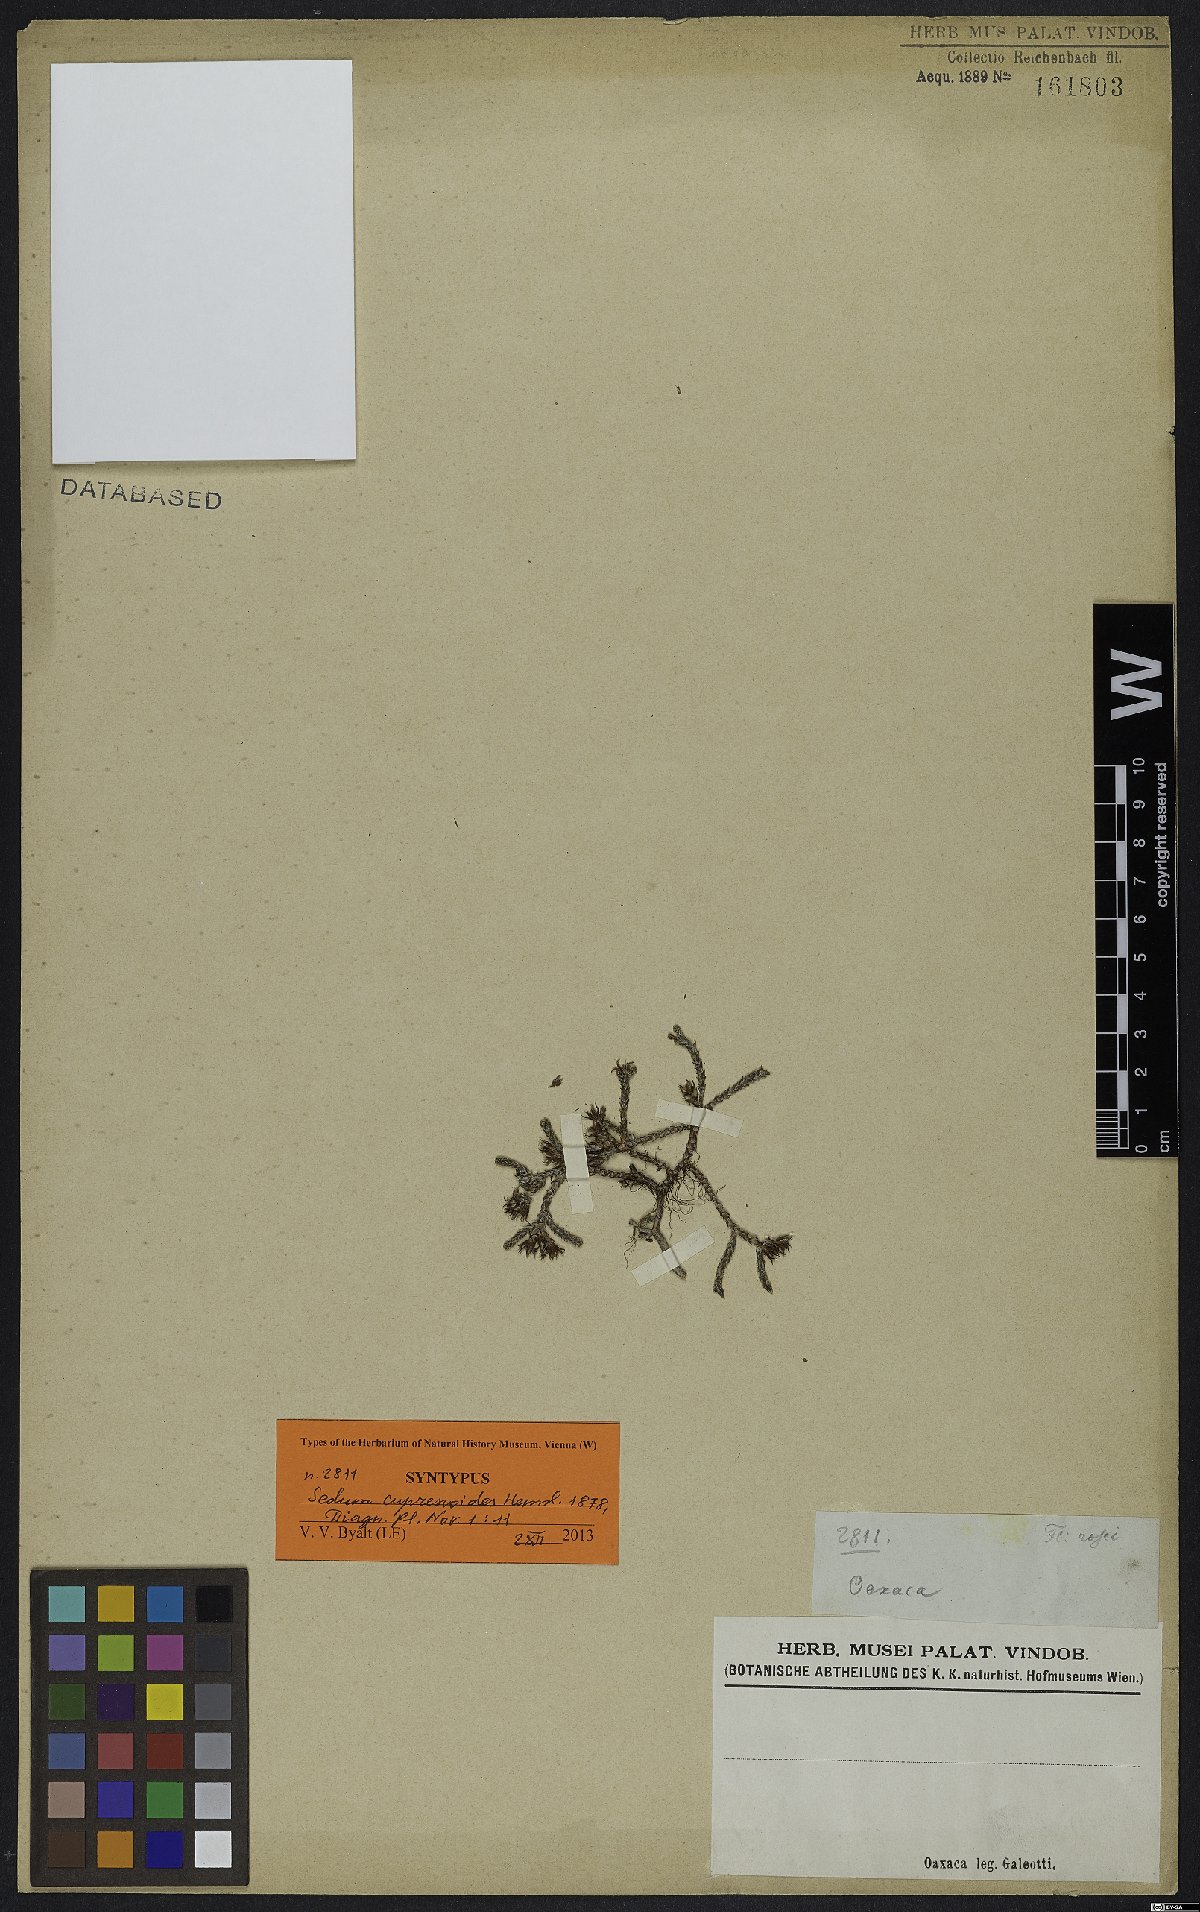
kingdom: Plantae
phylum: Tracheophyta
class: Magnoliopsida
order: Saxifragales
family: Crassulaceae
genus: Sedum
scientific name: Sedum cupressoides
